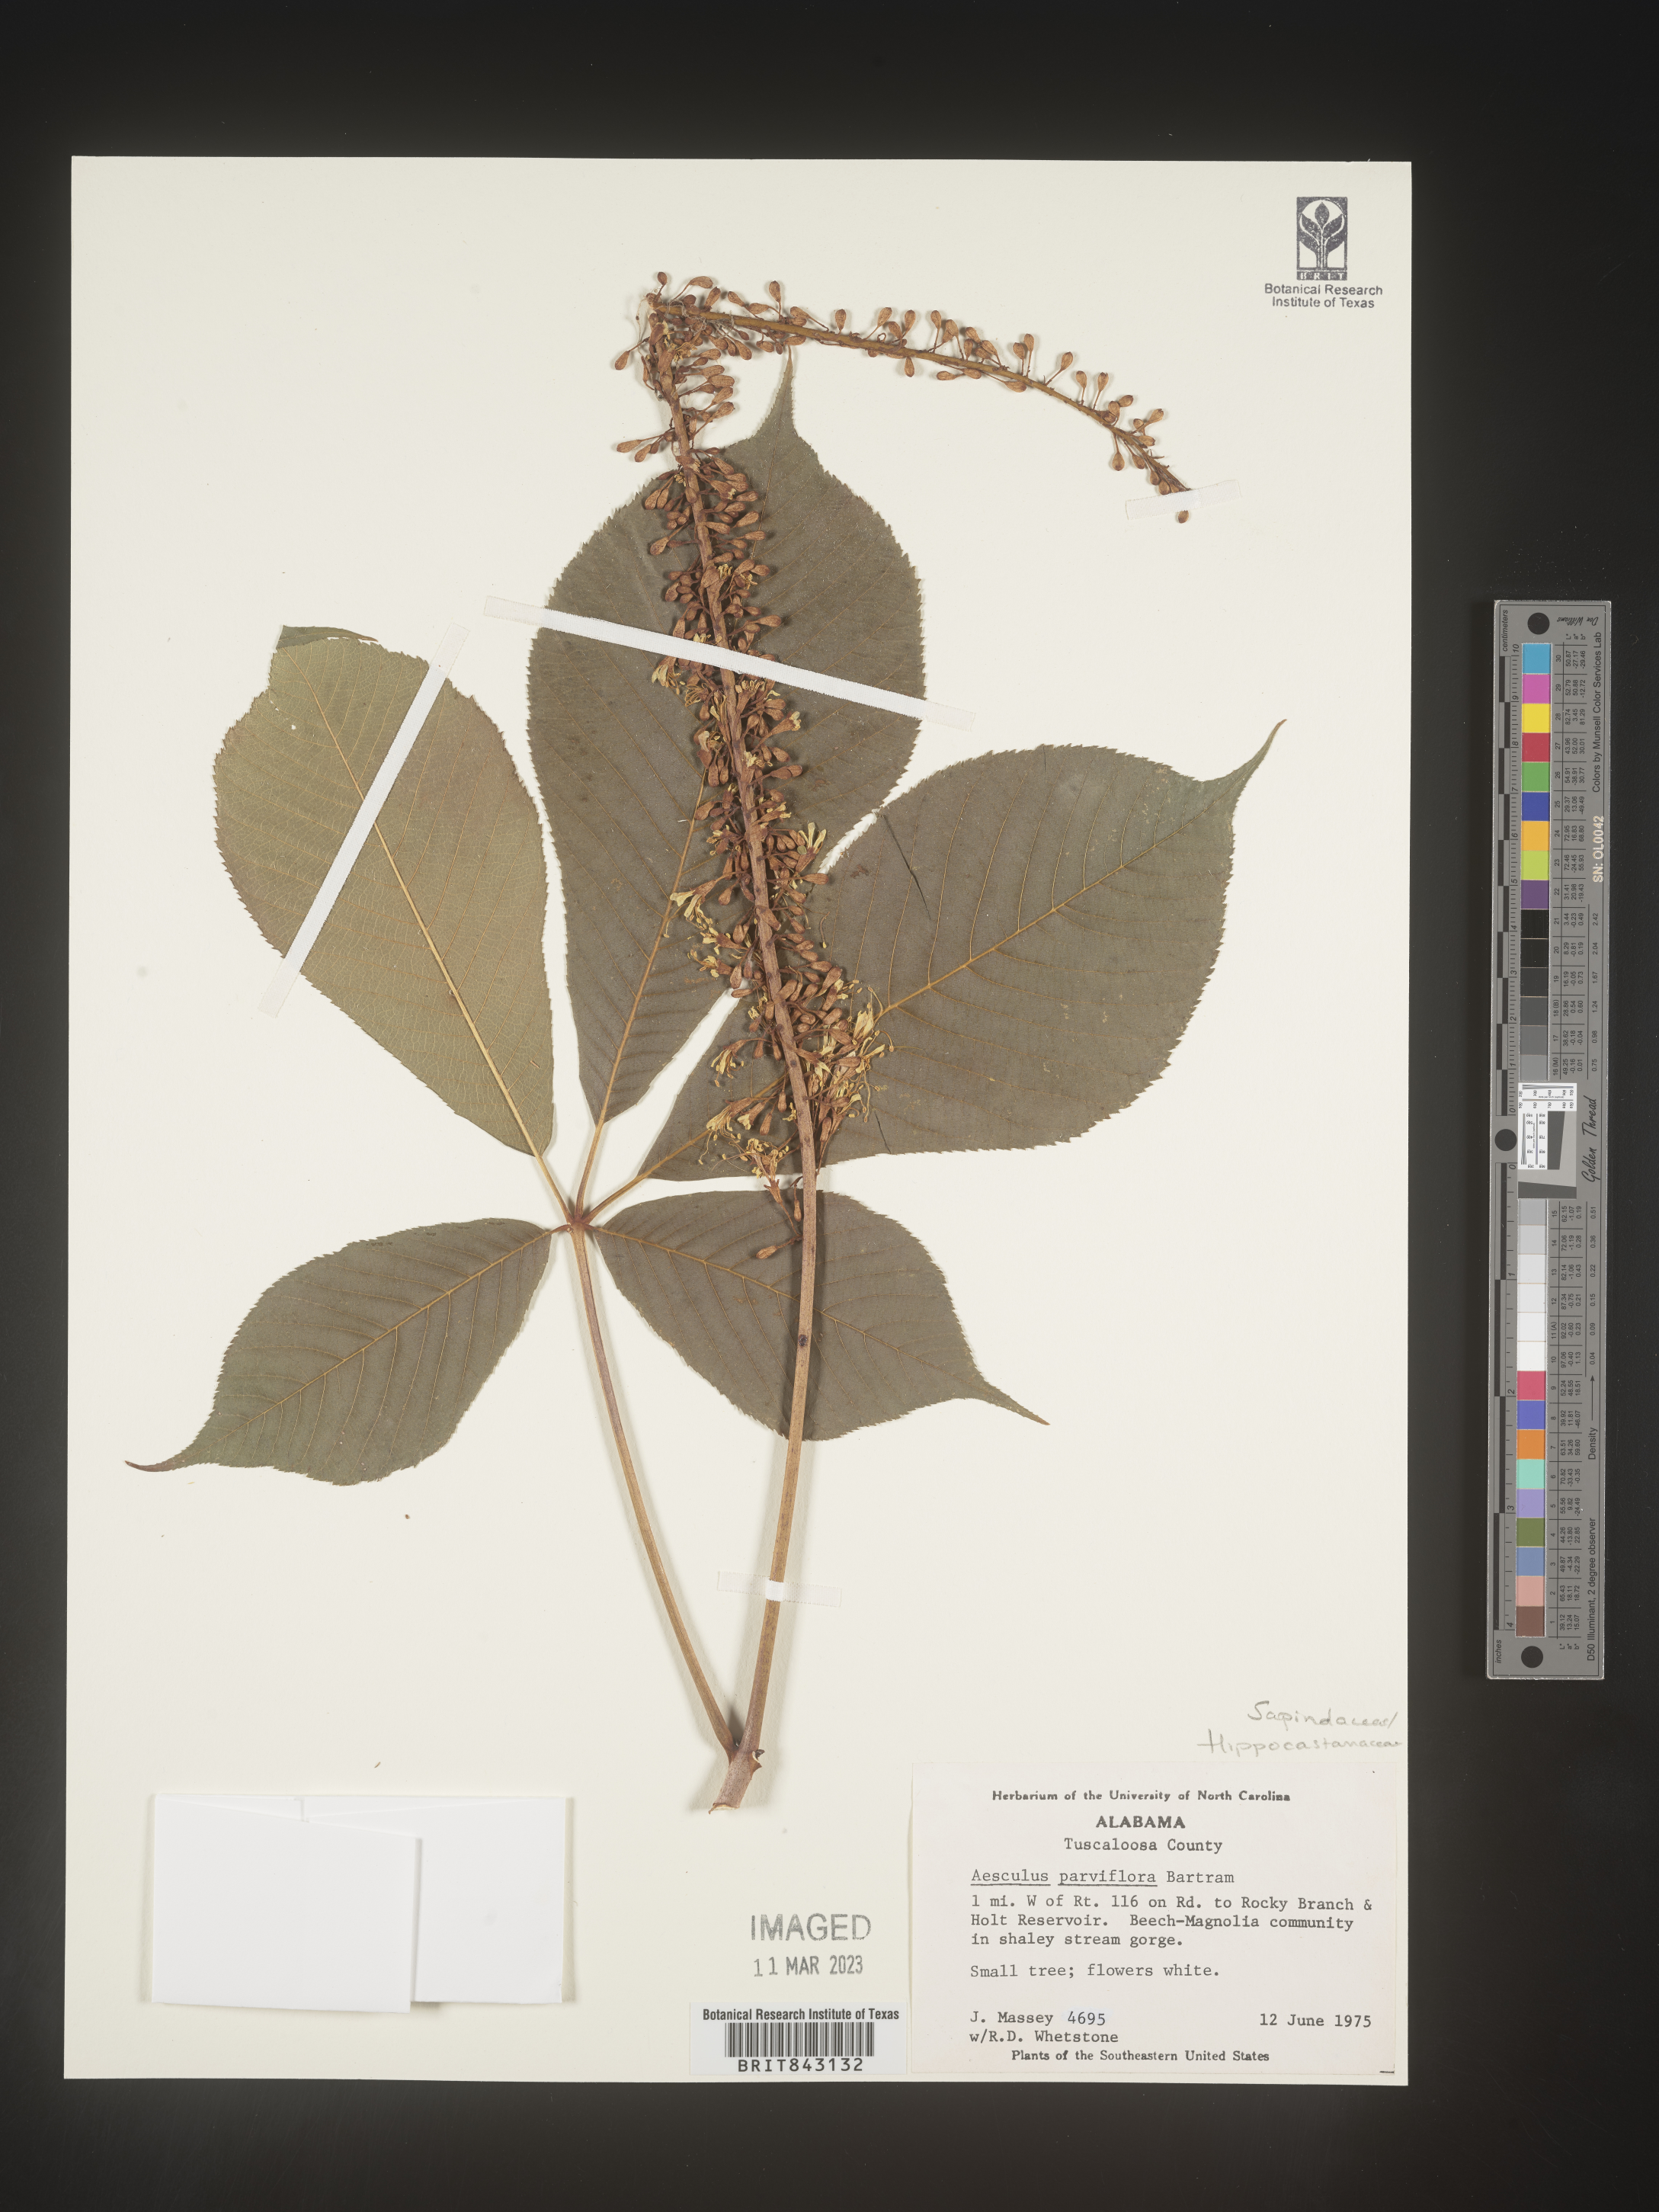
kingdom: Plantae
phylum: Tracheophyta
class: Magnoliopsida
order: Sapindales
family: Sapindaceae
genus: Aesculus
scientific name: Aesculus
